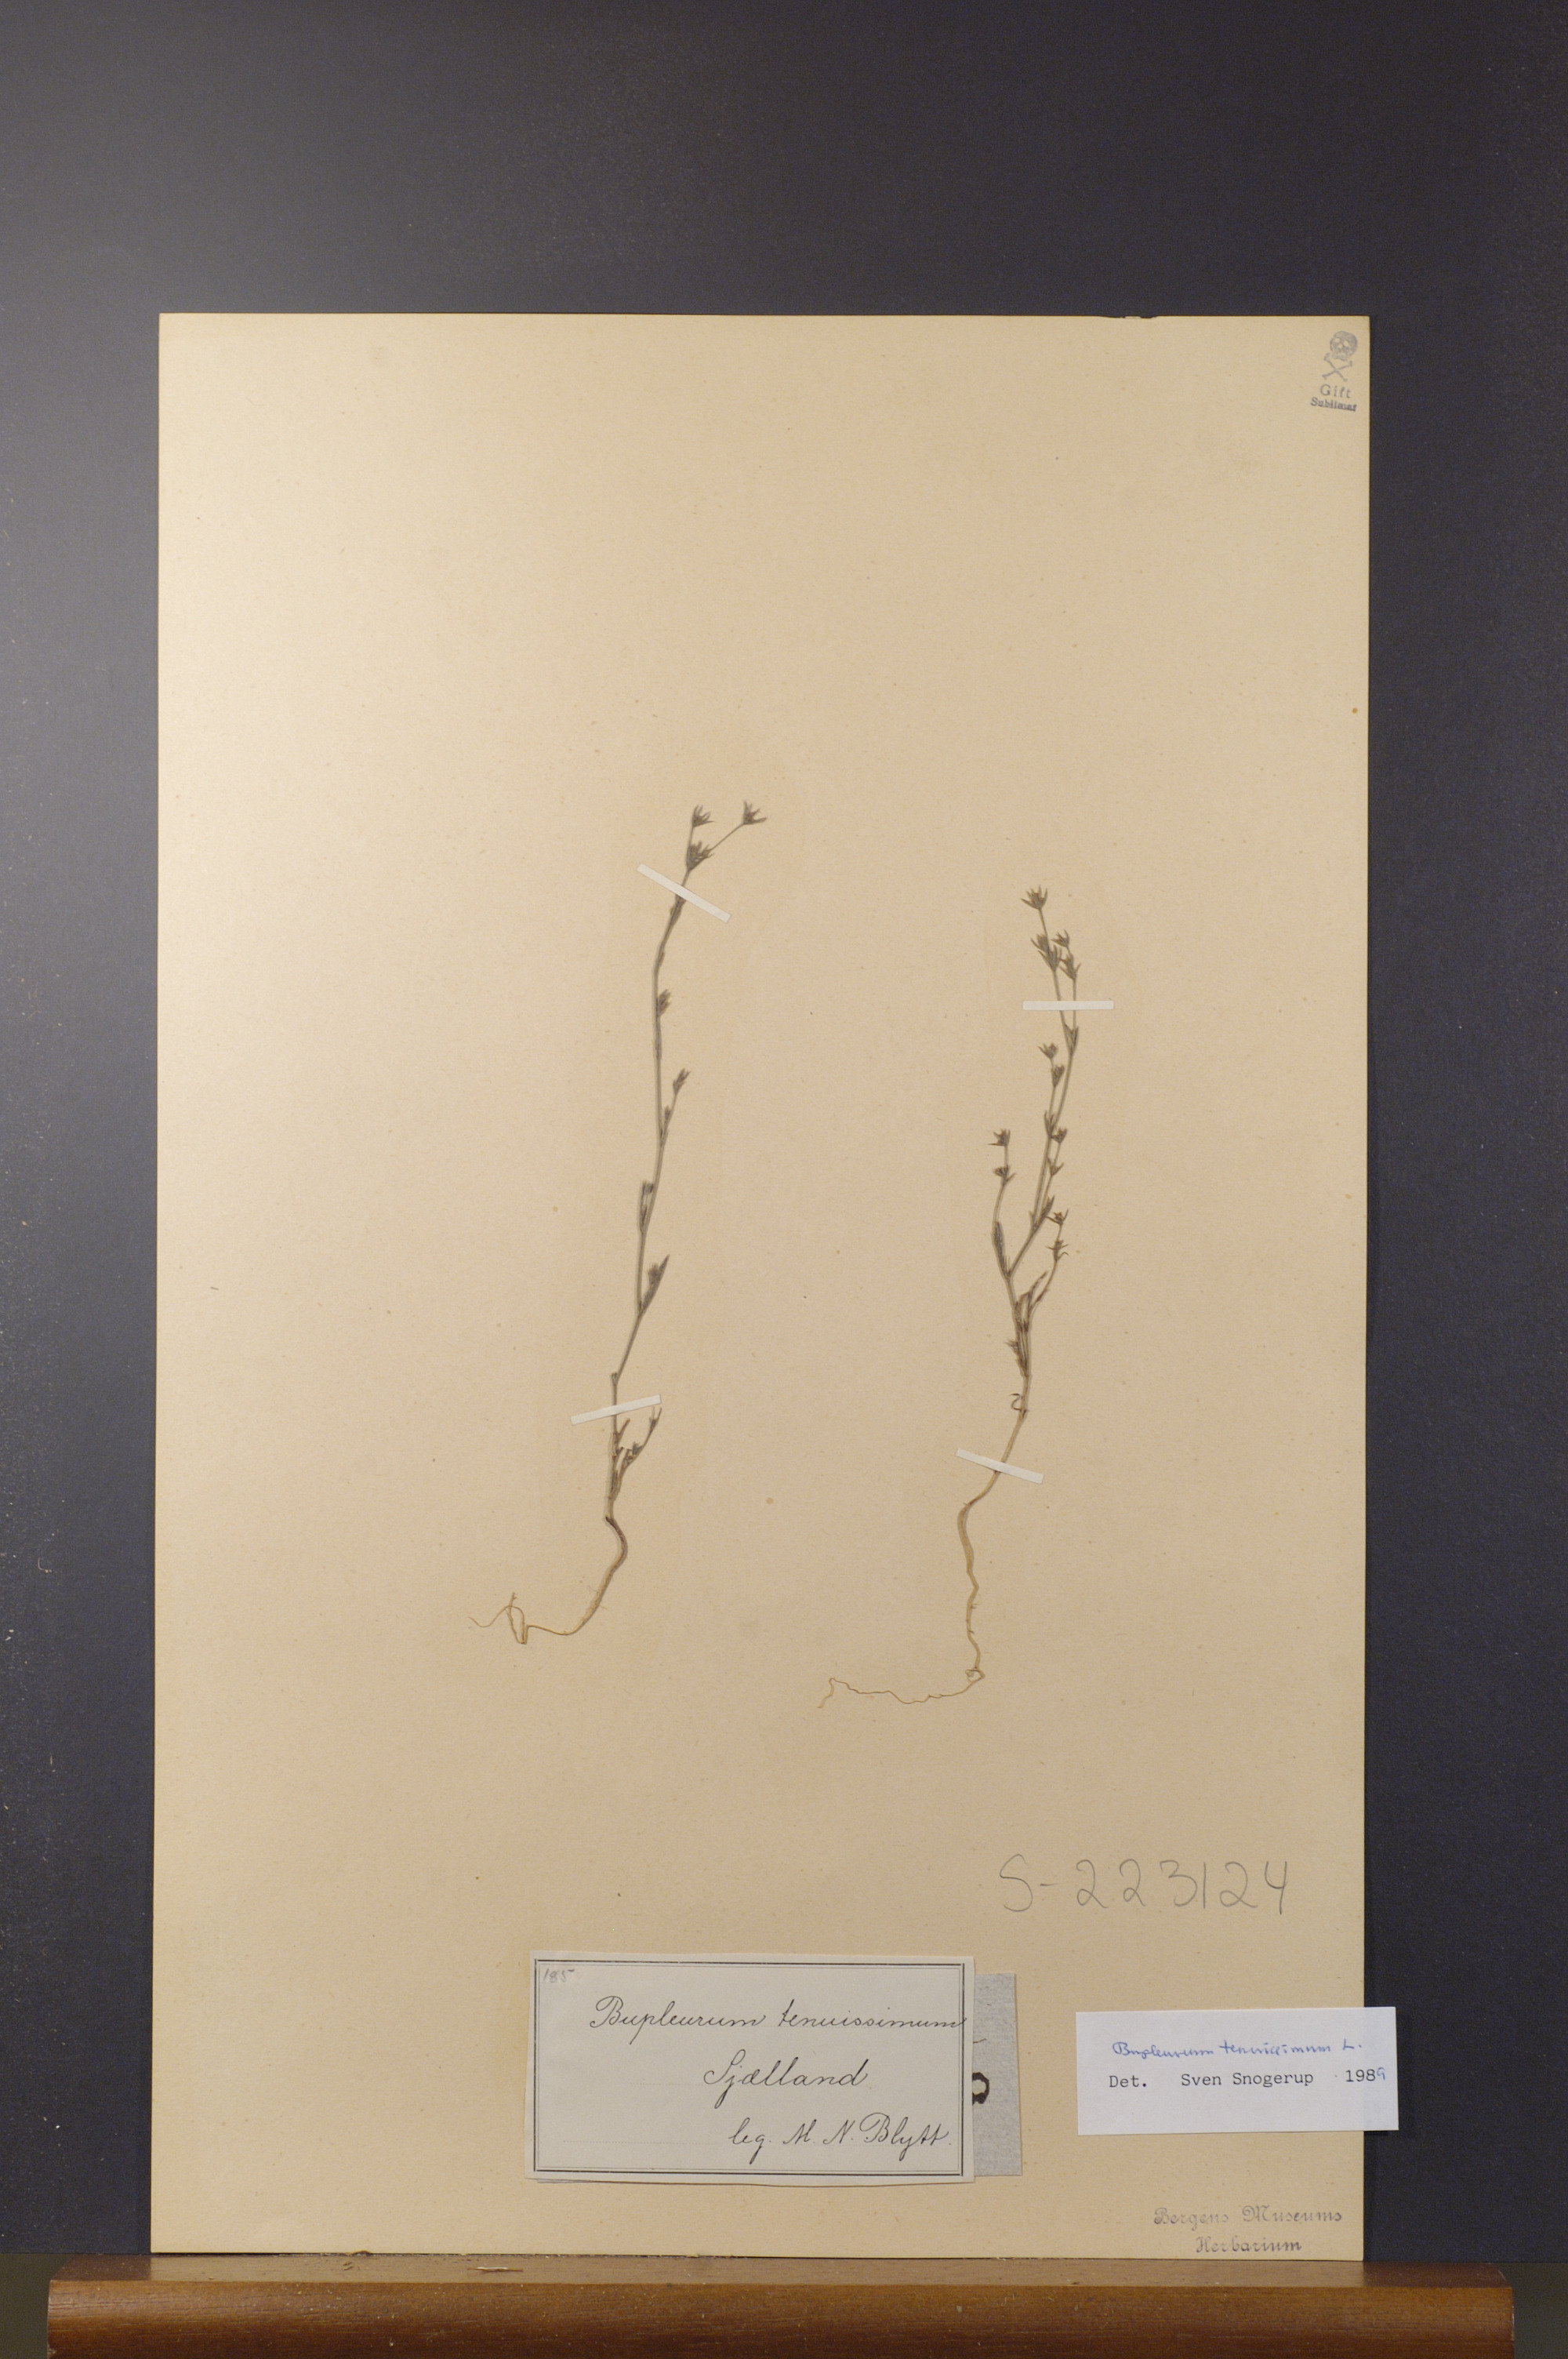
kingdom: Plantae
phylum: Tracheophyta
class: Magnoliopsida
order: Apiales
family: Apiaceae
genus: Bupleurum
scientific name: Bupleurum tenuissimum
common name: Slender hare's-ear
